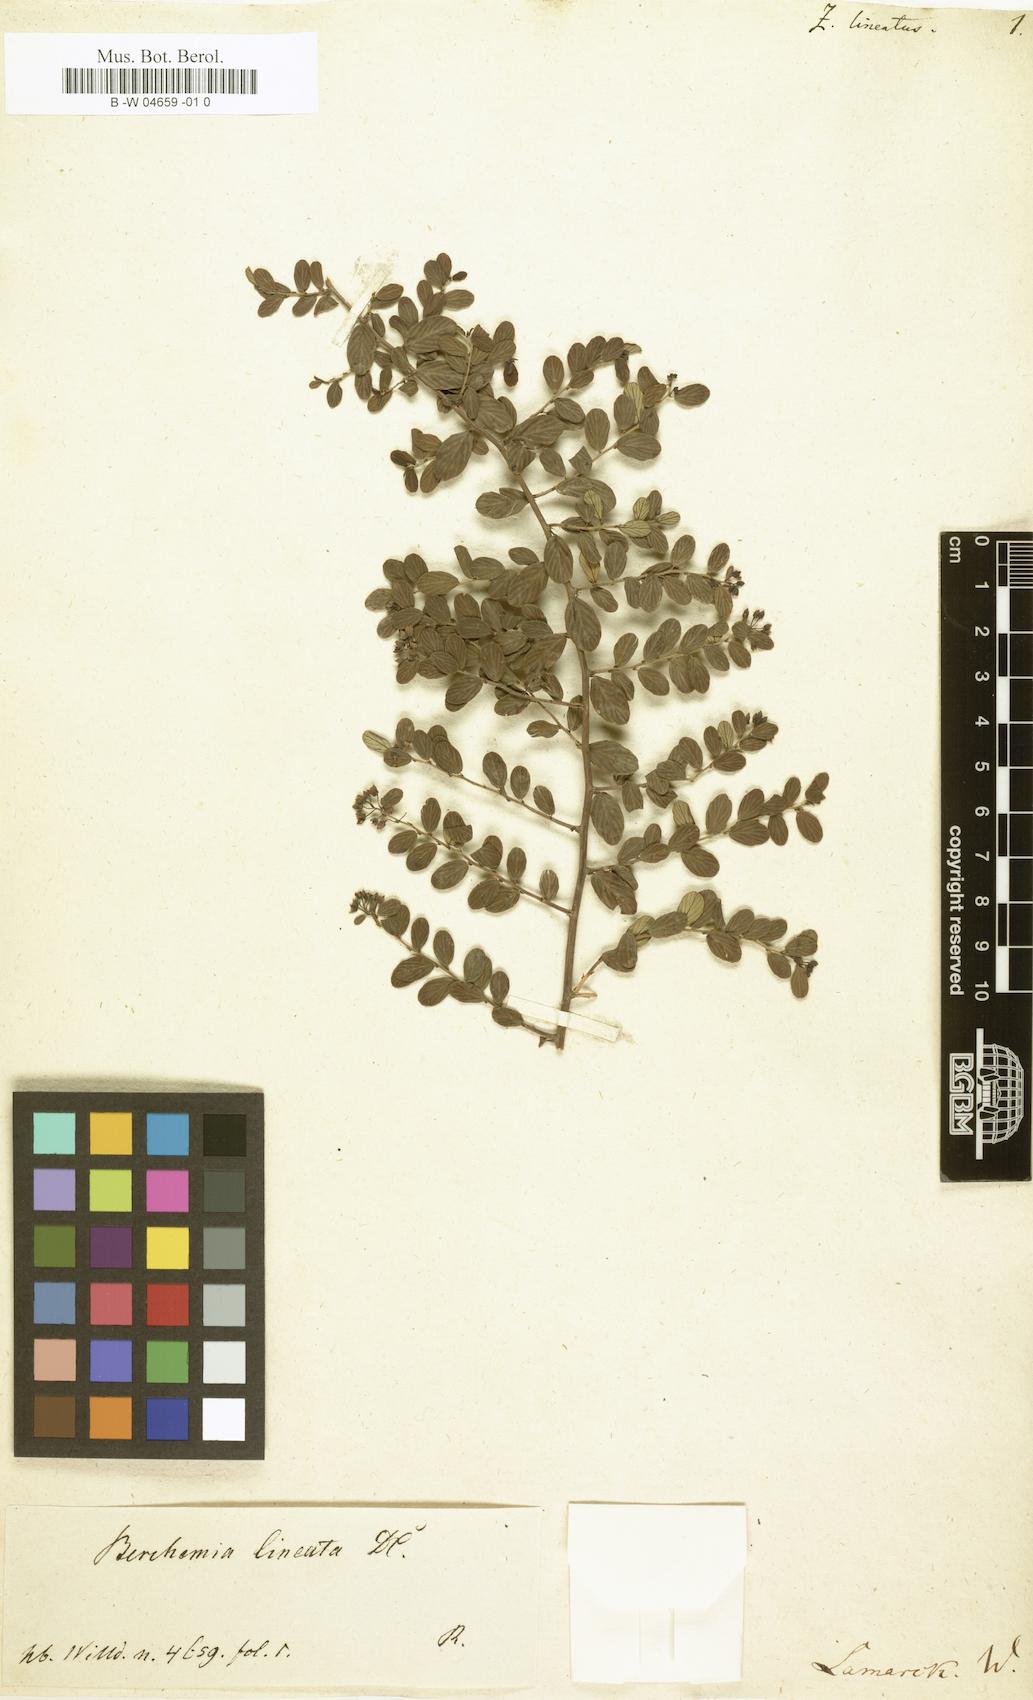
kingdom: Plantae
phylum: Tracheophyta
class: Magnoliopsida
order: Rosales
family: Rhamnaceae
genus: Berchemia
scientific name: Berchemia lineata
